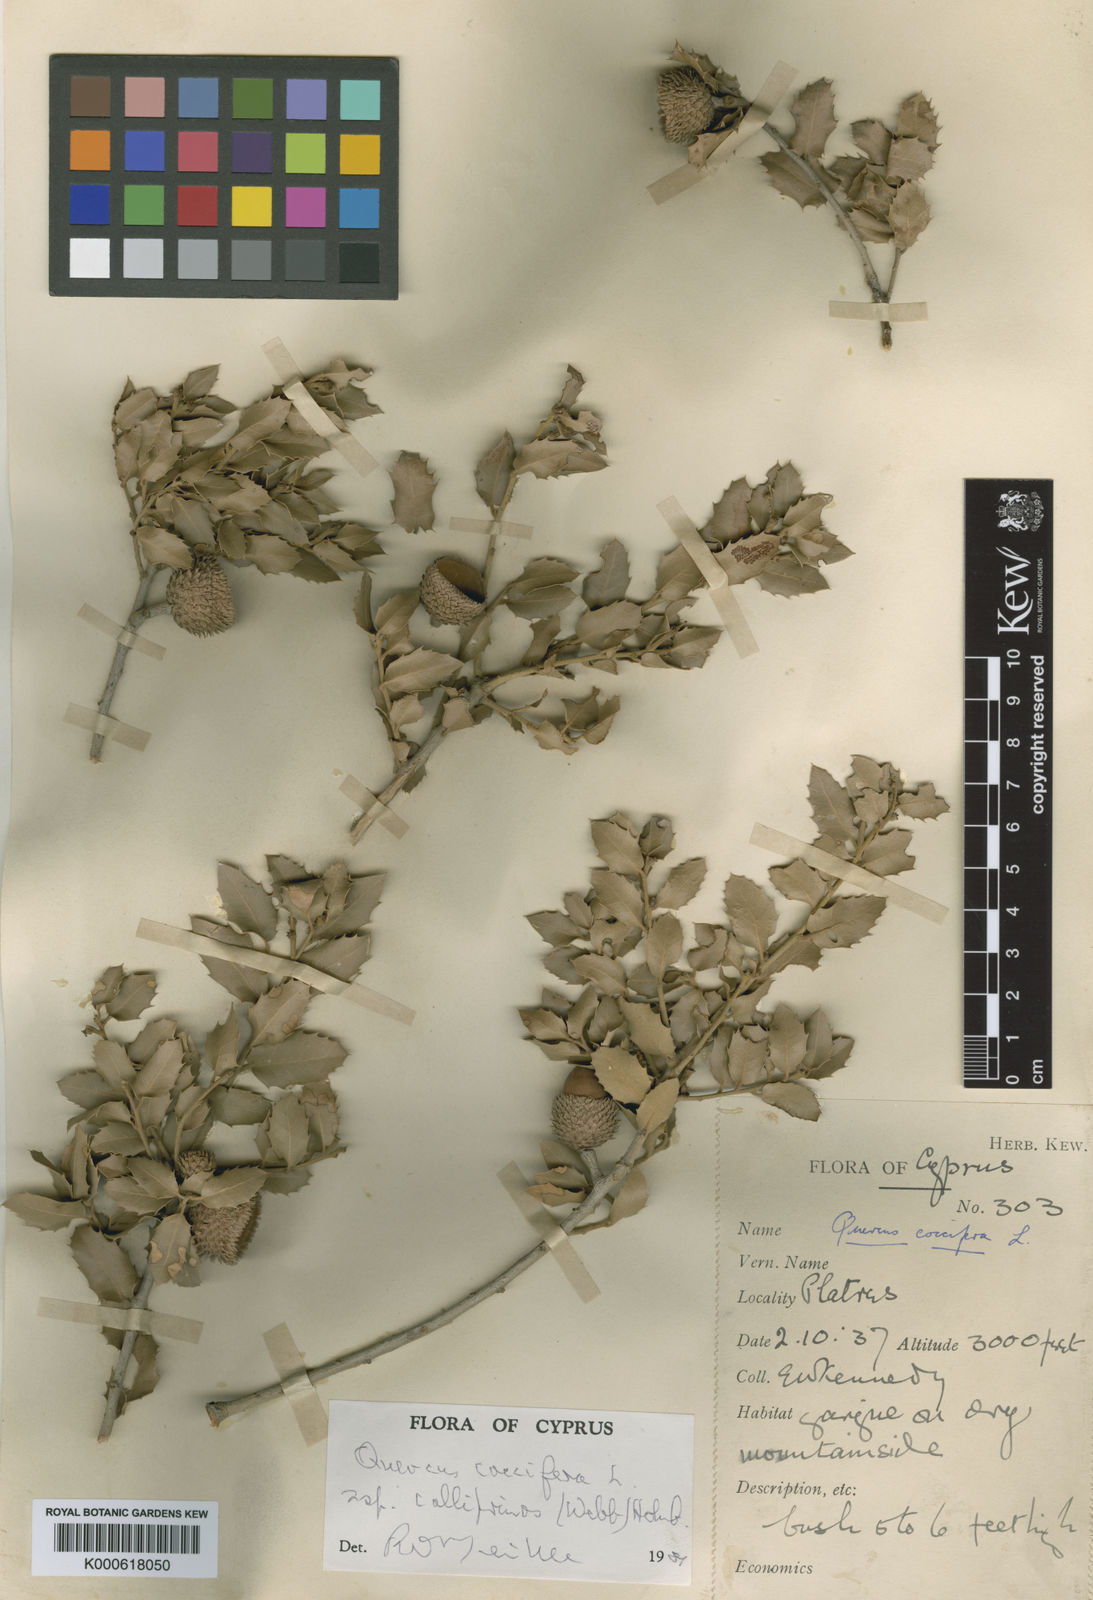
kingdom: Plantae
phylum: Tracheophyta
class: Magnoliopsida
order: Fagales
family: Fagaceae
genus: Quercus
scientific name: Quercus coccifera
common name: Kermes oak
